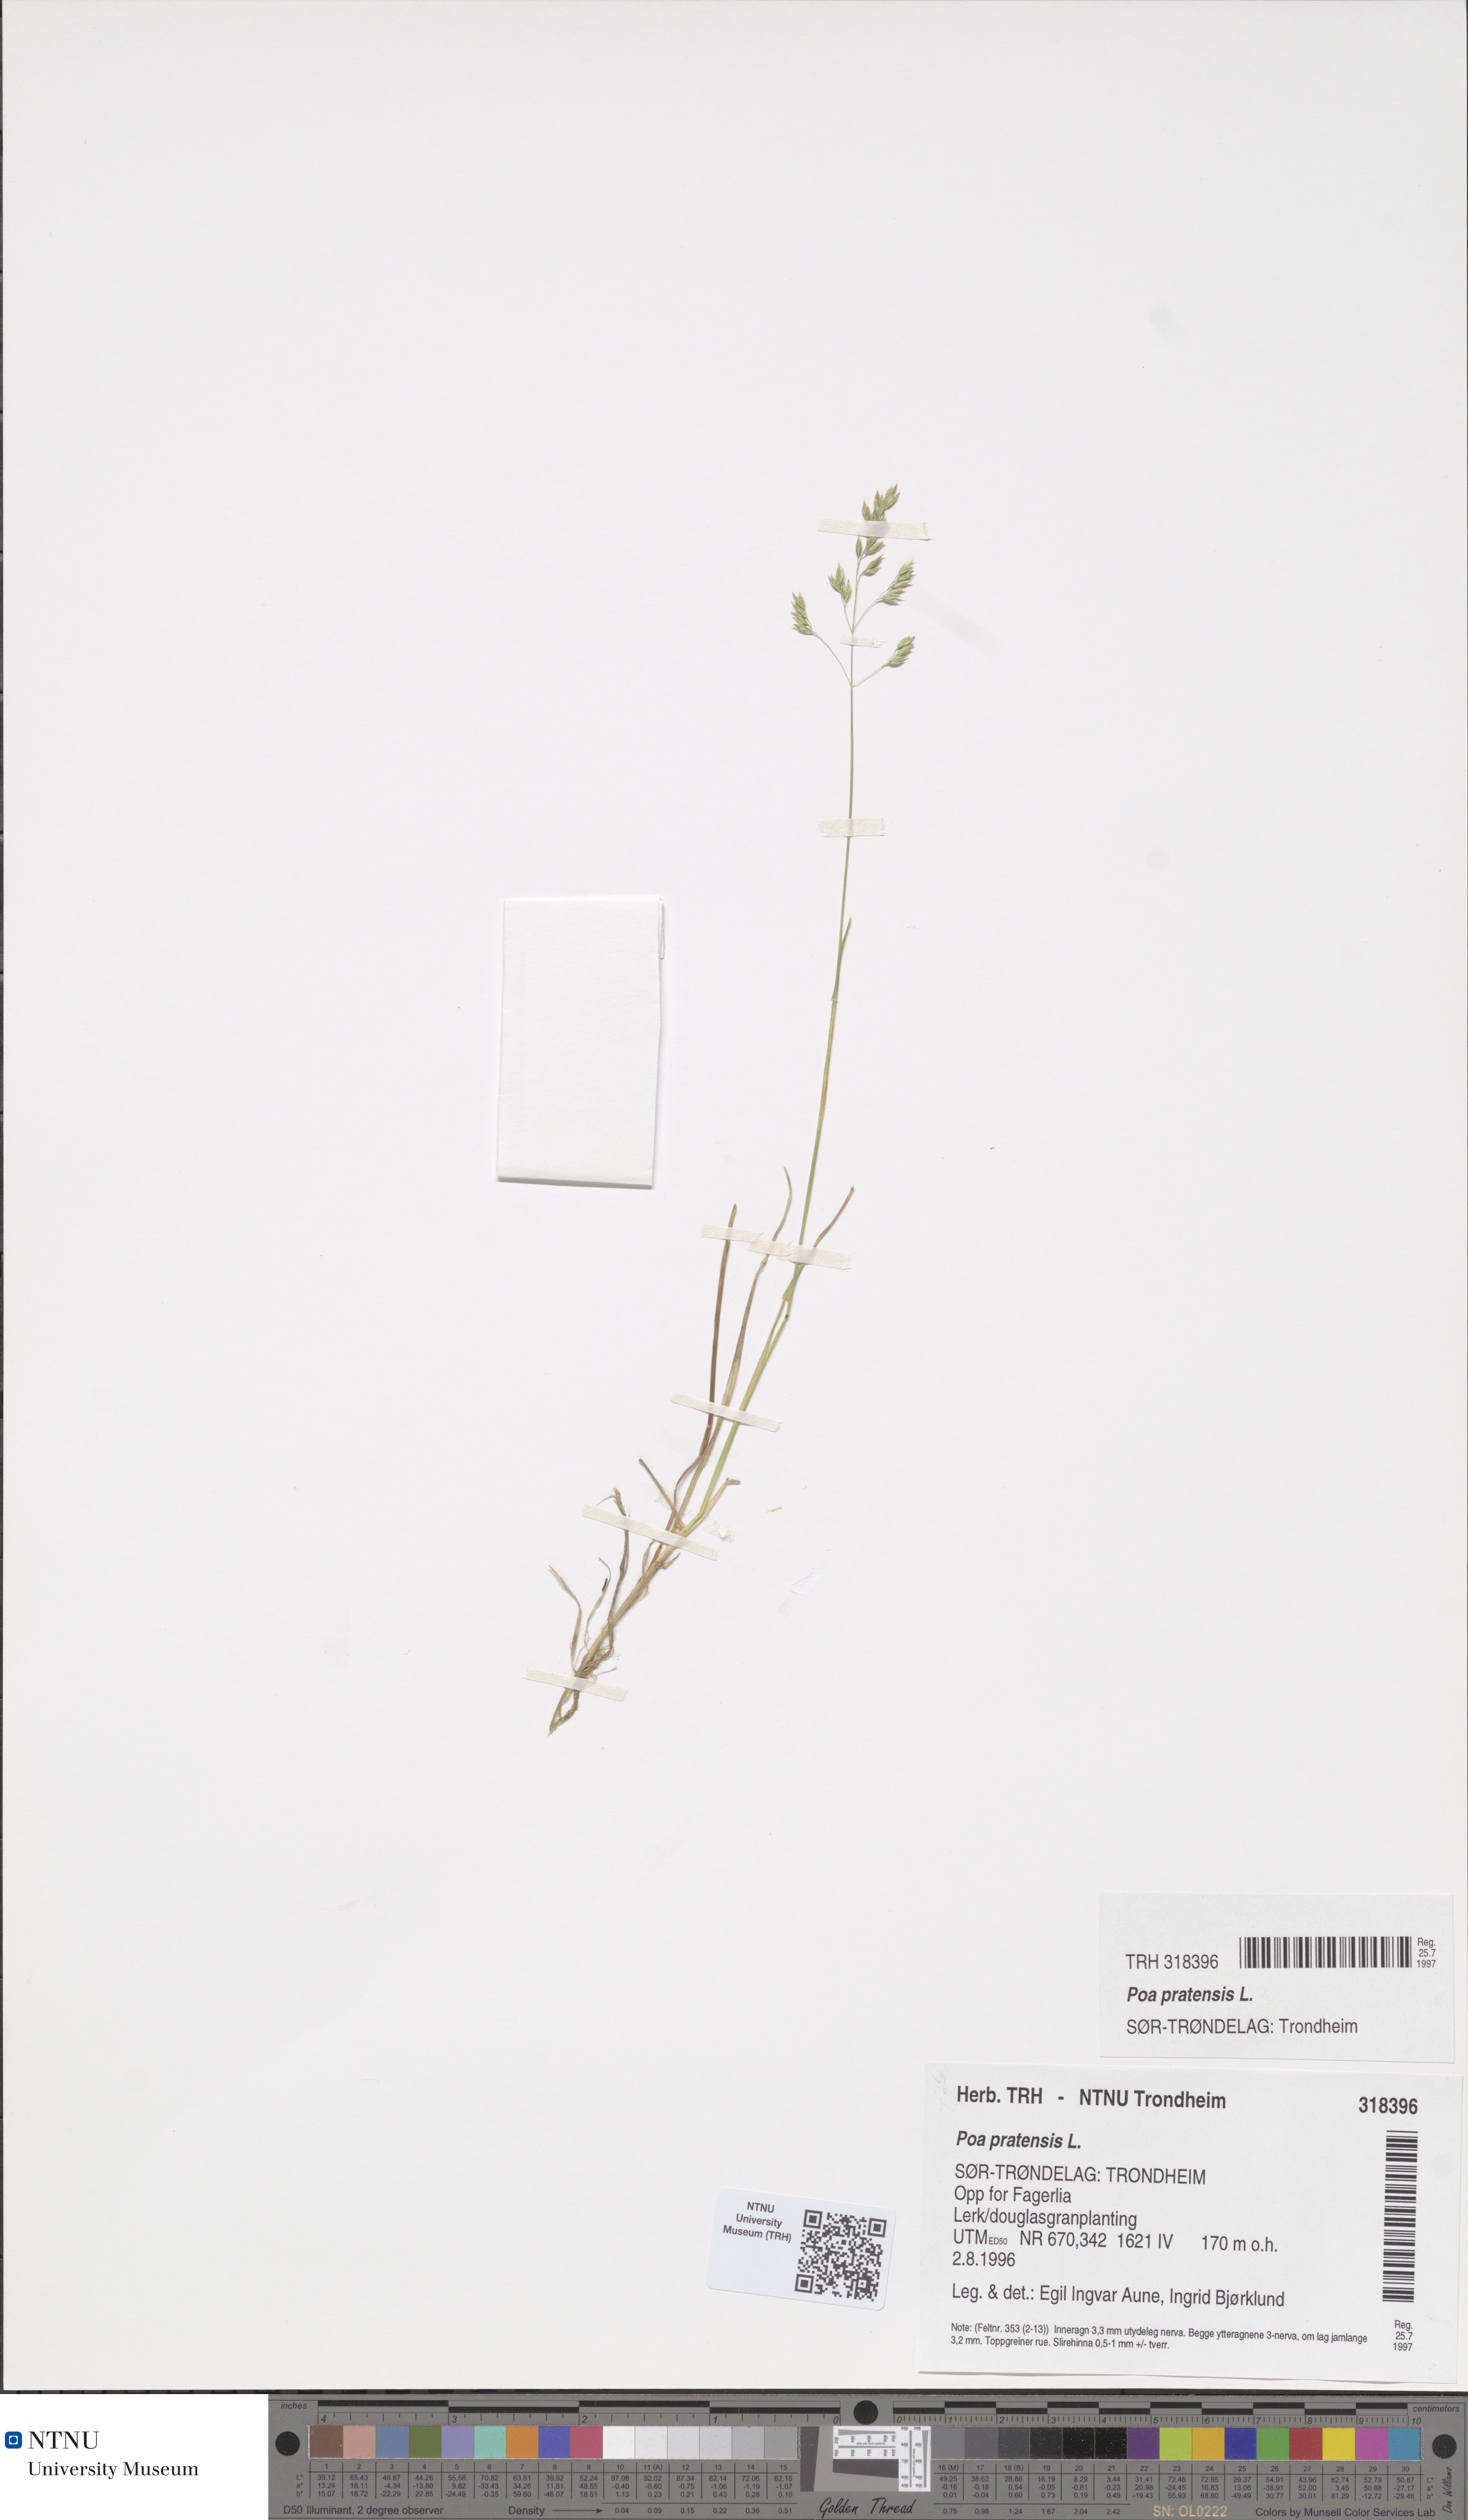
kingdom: Plantae
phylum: Tracheophyta
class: Liliopsida
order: Poales
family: Poaceae
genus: Poa
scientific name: Poa pratensis
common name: Kentucky bluegrass
